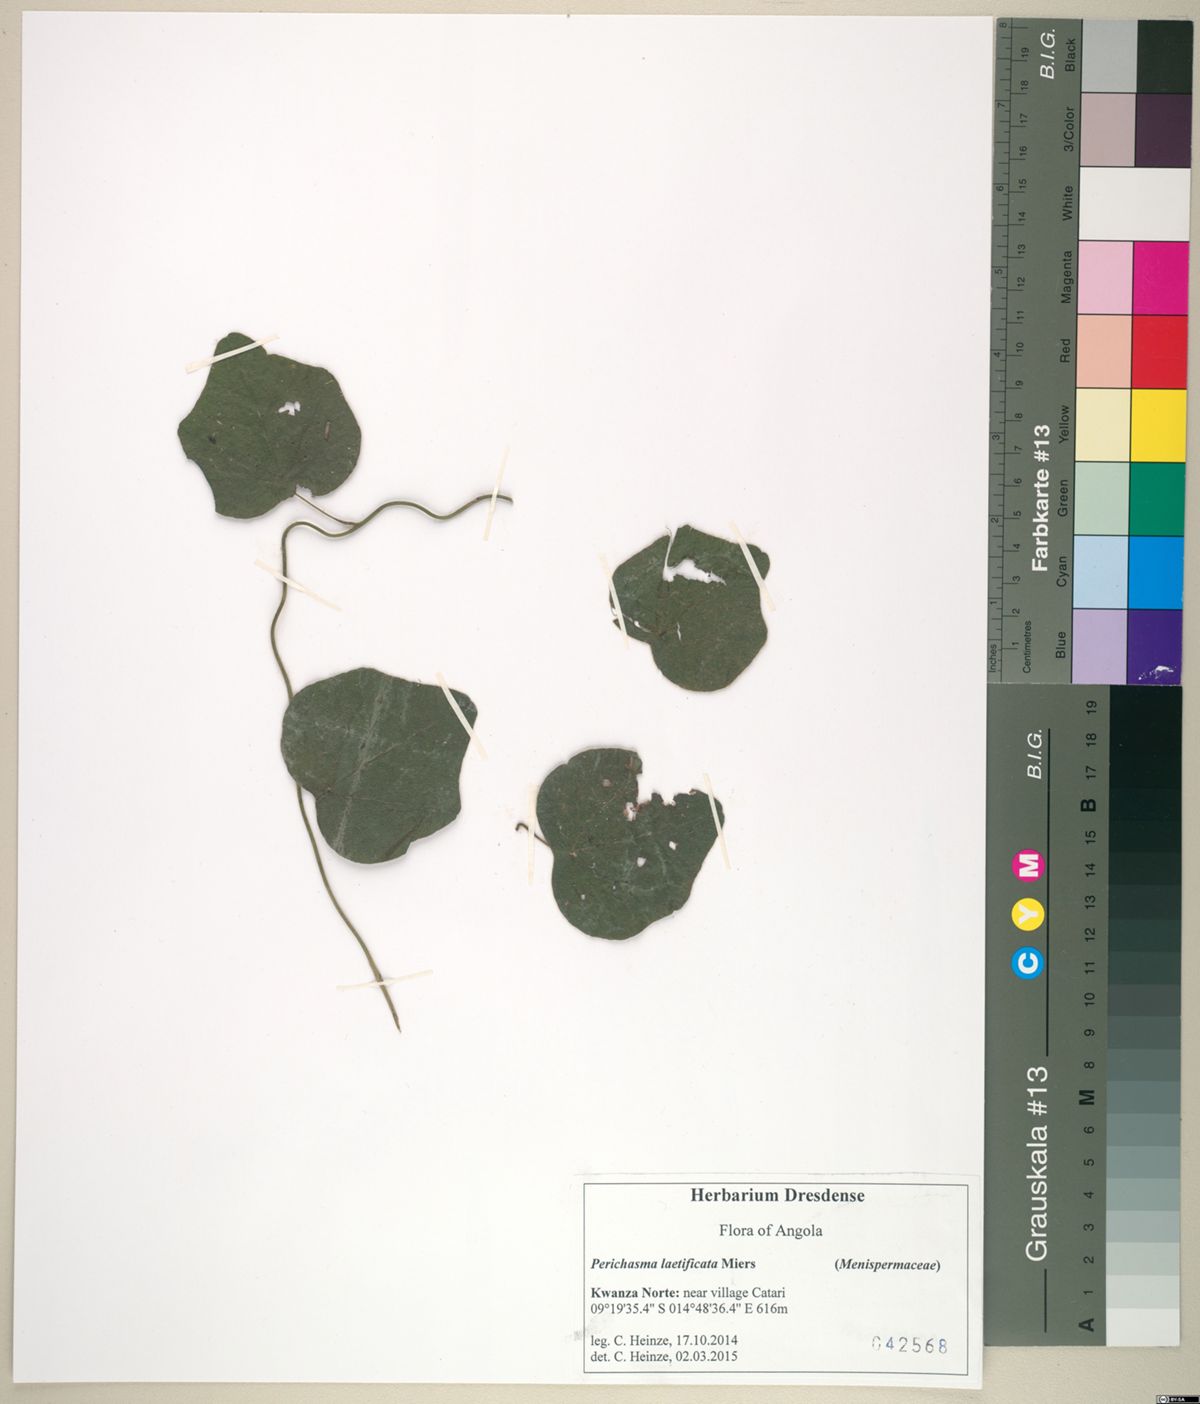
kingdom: Plantae
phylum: Tracheophyta
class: Magnoliopsida
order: Ranunculales
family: Menispermaceae
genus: Cissampelos
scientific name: Cissampelos owariensis
